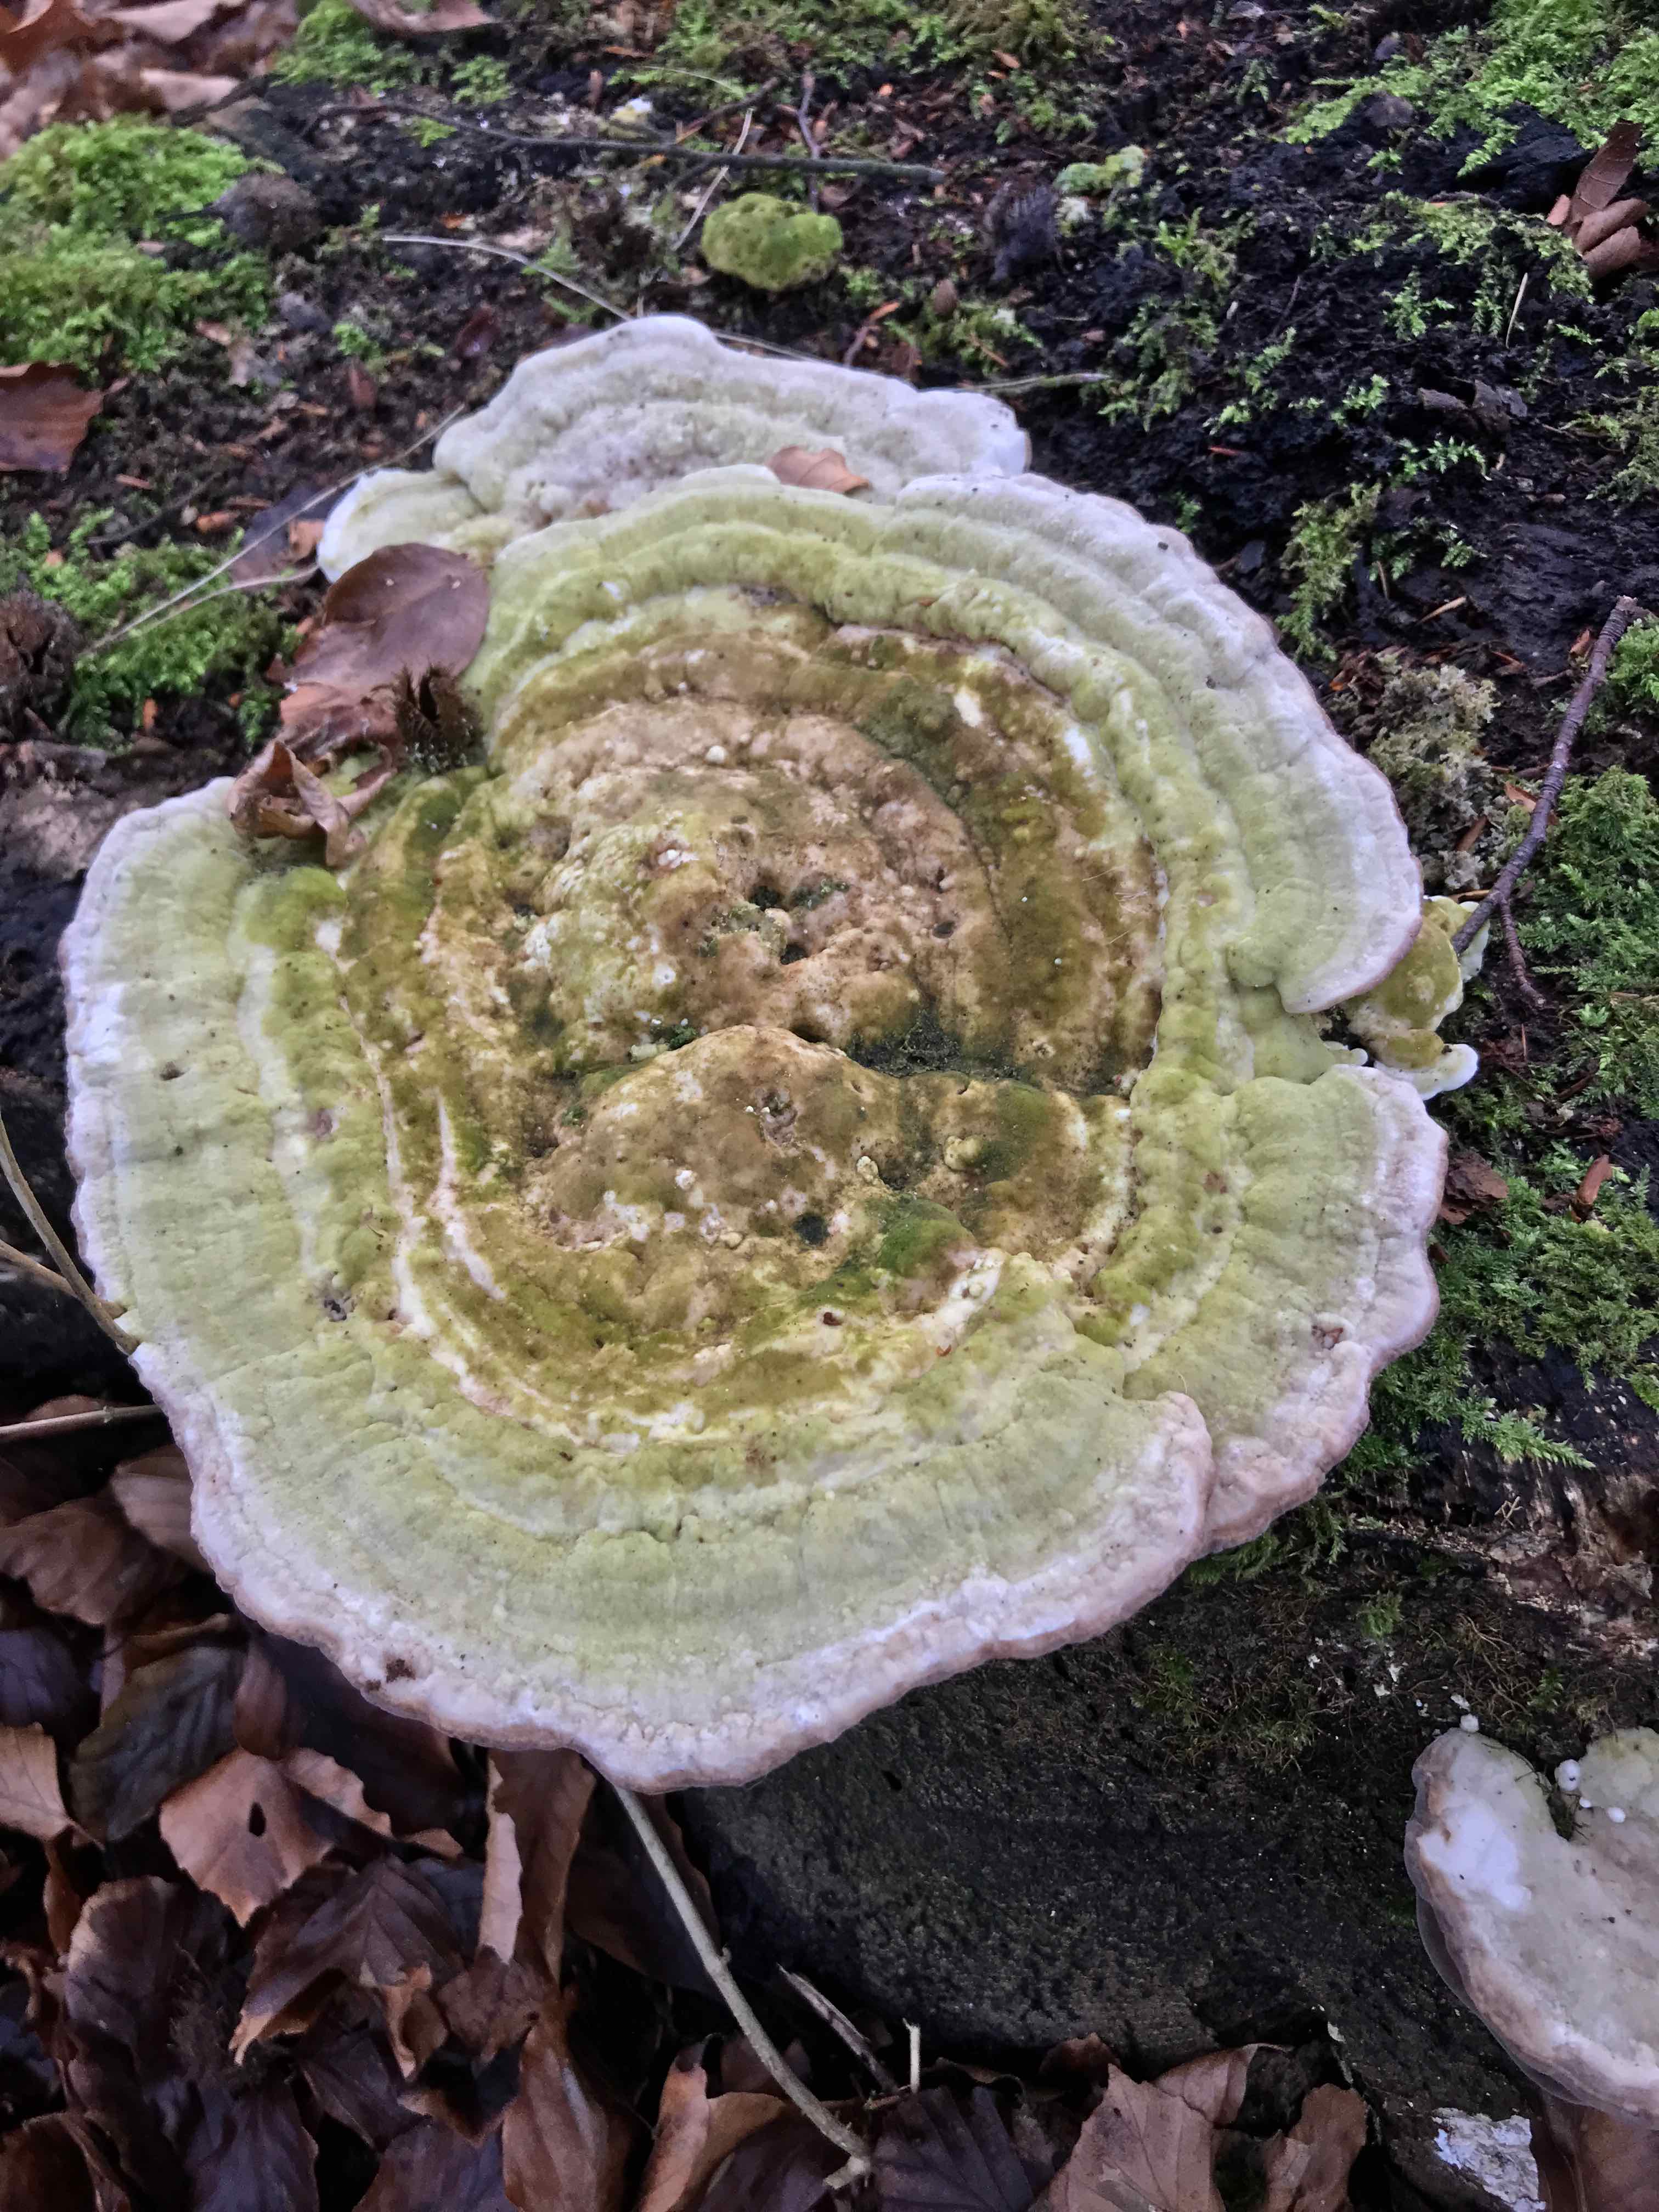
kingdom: Fungi
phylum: Basidiomycota
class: Agaricomycetes
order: Polyporales
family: Polyporaceae
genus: Trametes
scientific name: Trametes gibbosa
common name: puklet læderporesvamp
